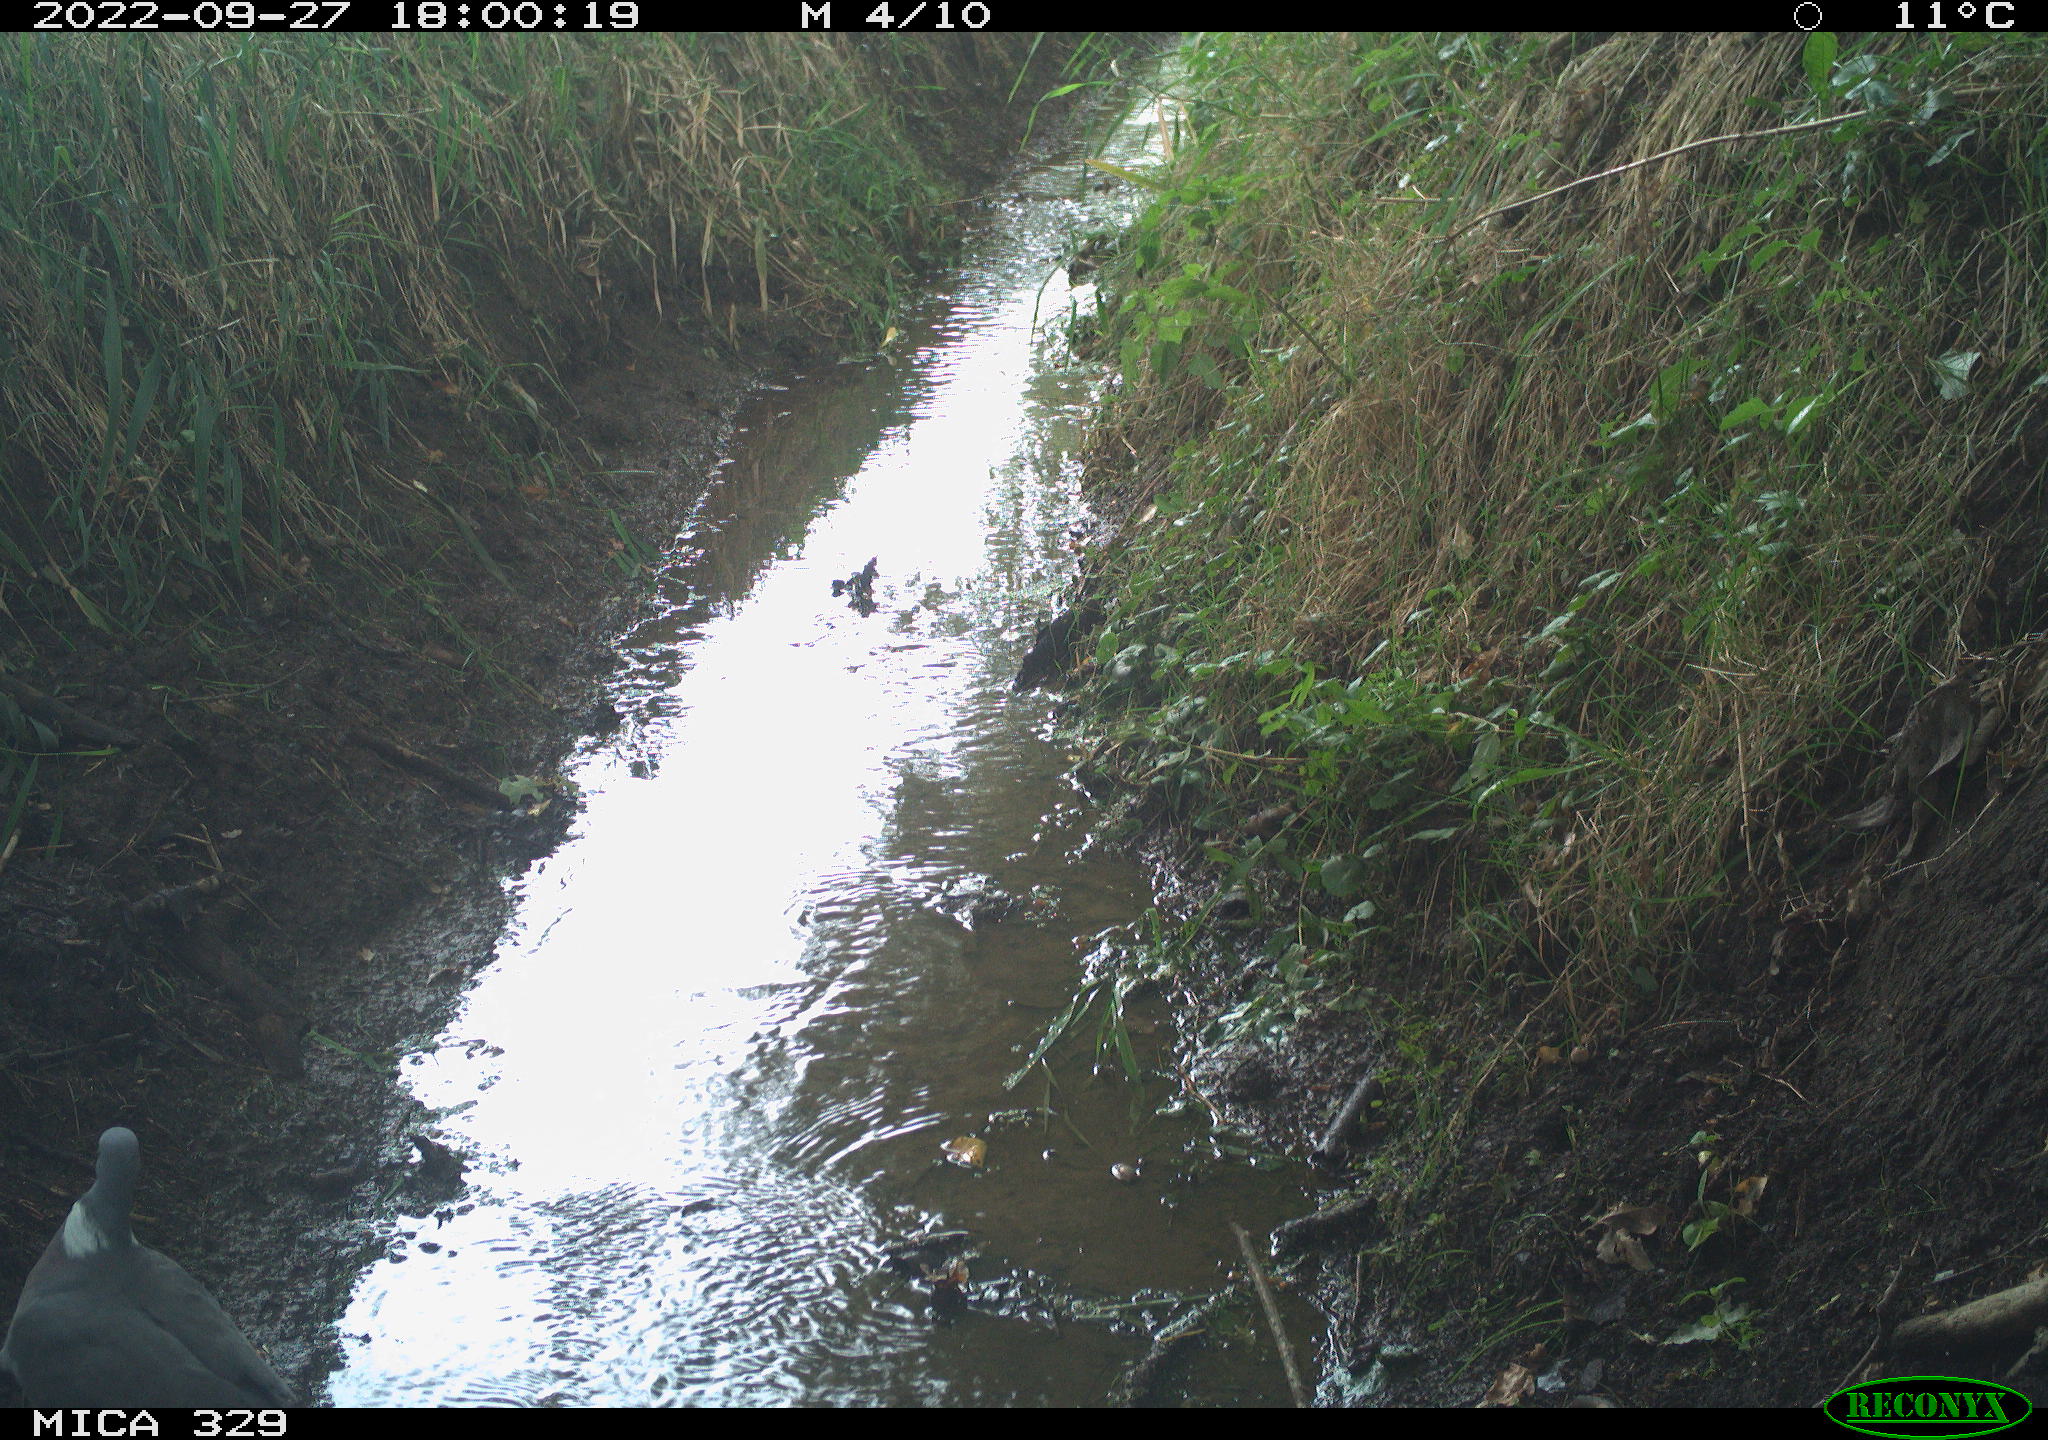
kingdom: Animalia
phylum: Chordata
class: Aves
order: Columbiformes
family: Columbidae
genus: Columba
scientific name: Columba palumbus
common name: Common wood pigeon
